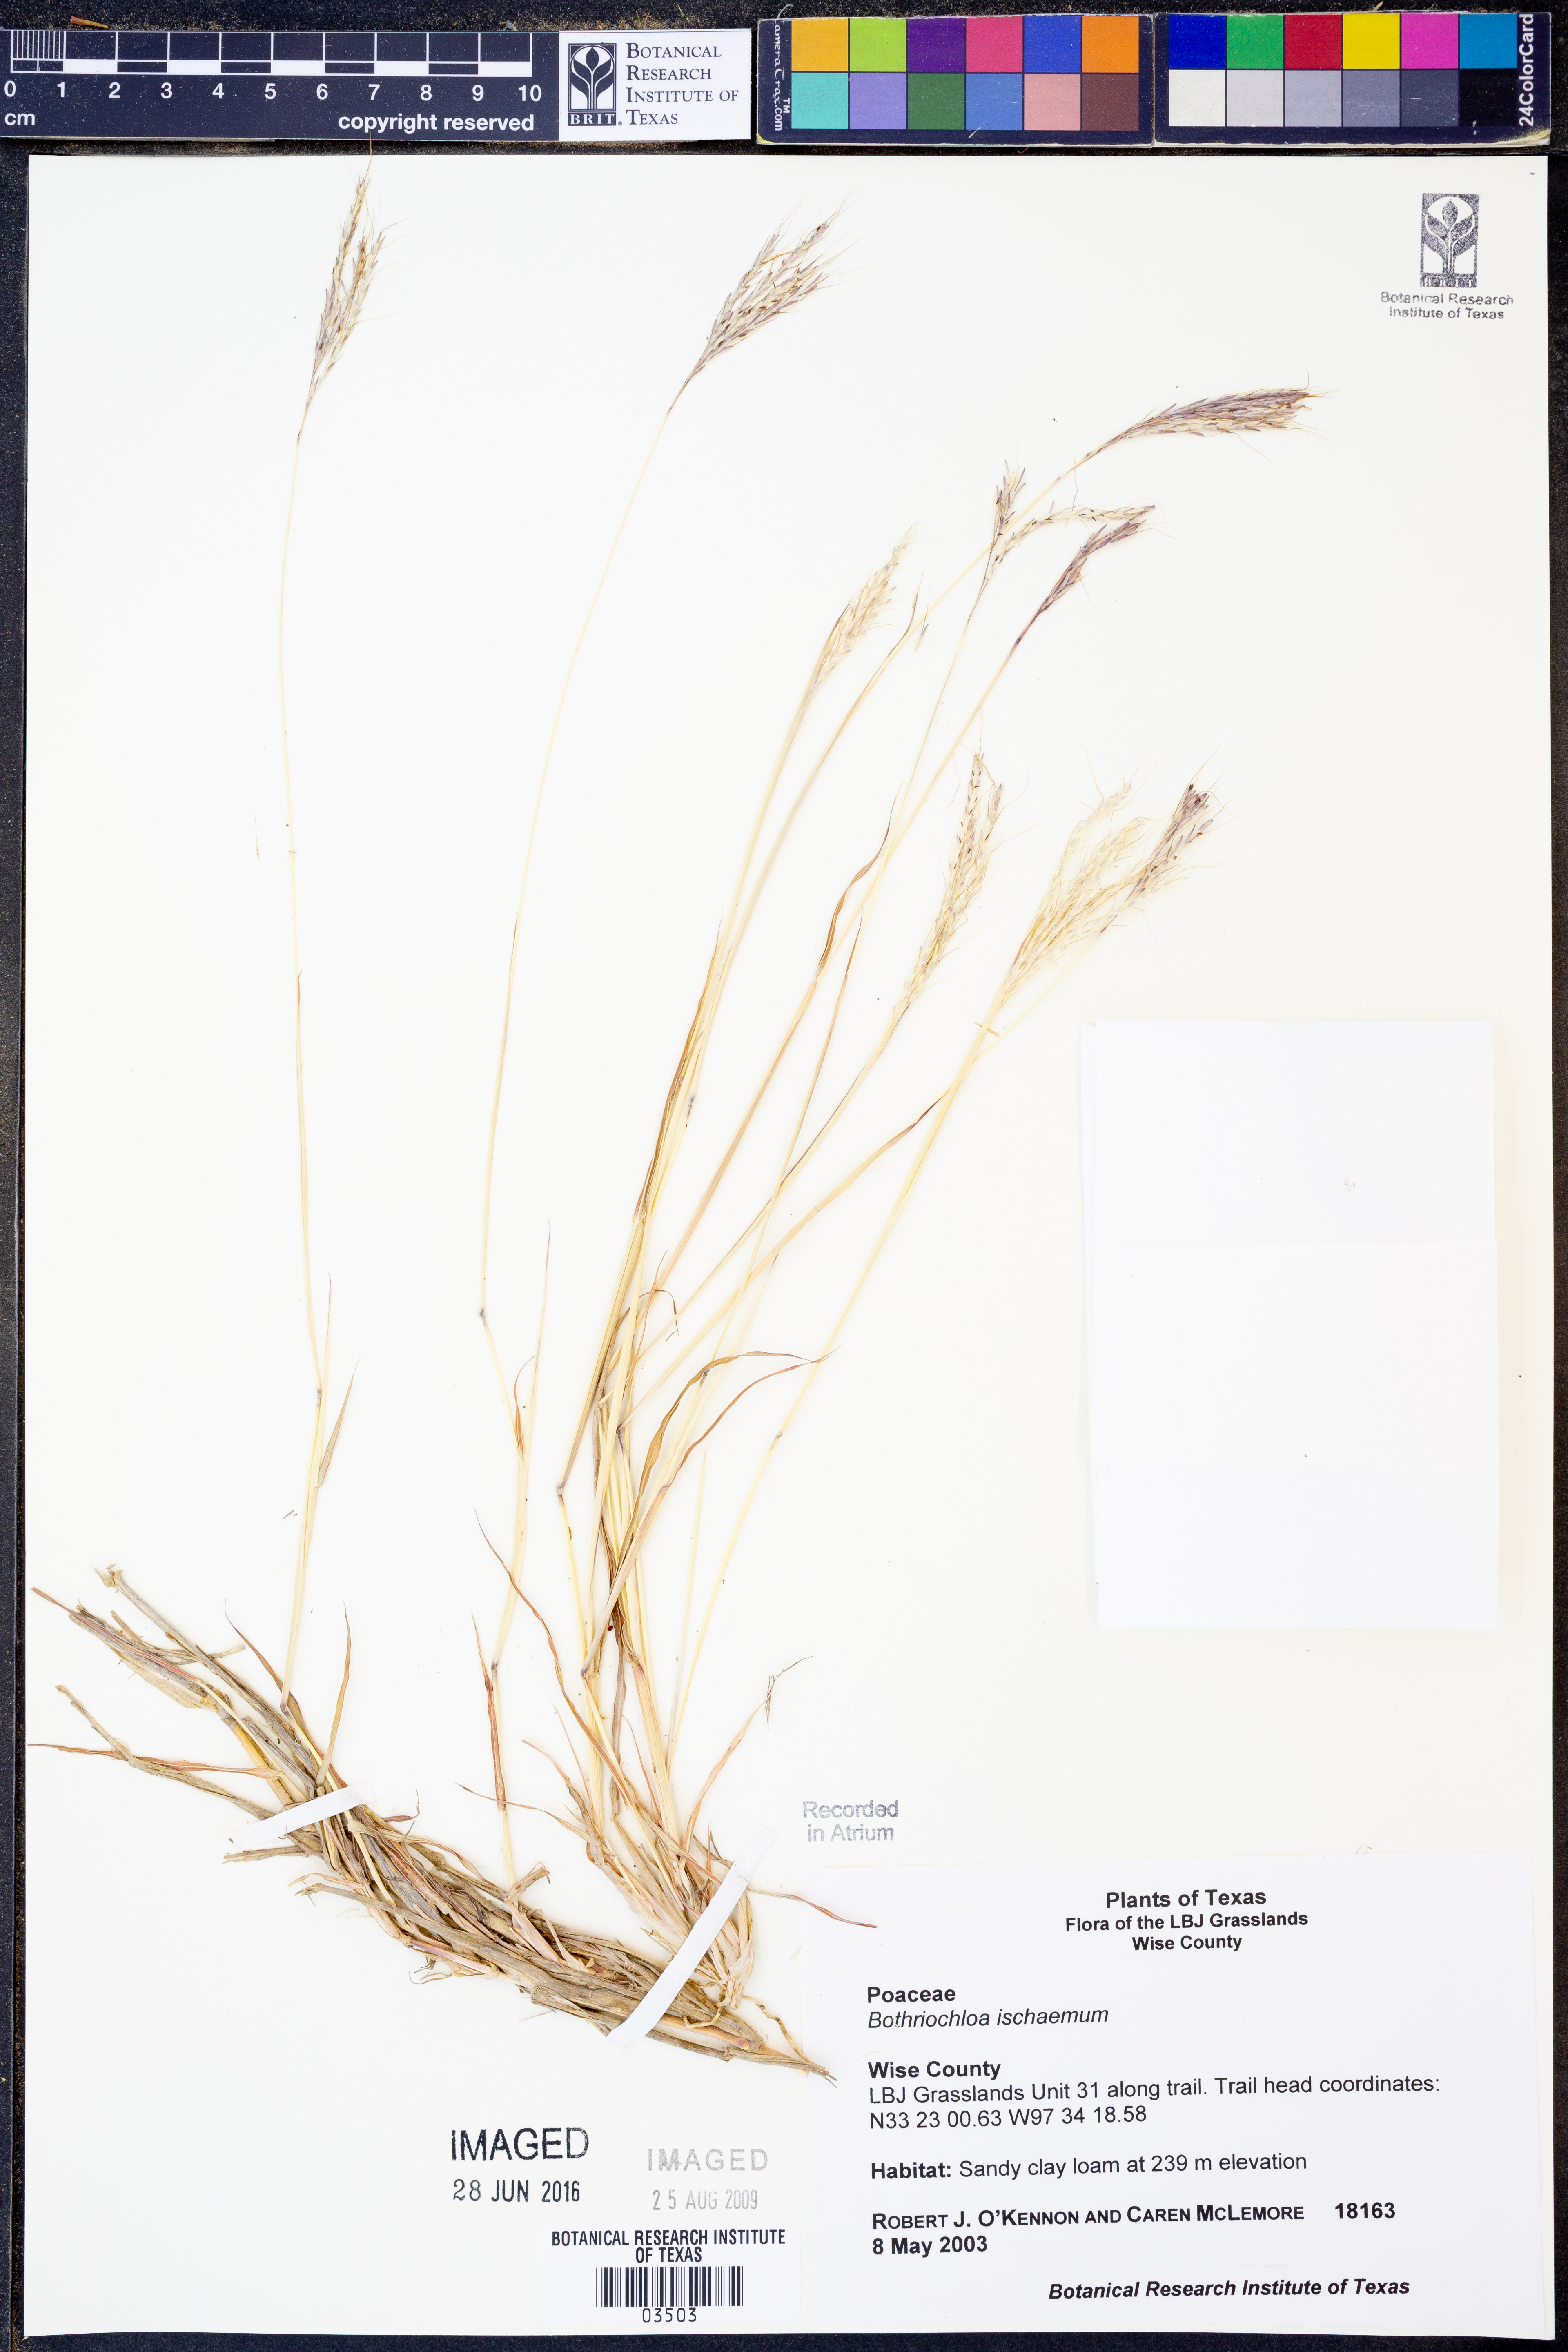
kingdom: Plantae
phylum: Tracheophyta
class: Liliopsida
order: Poales
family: Poaceae
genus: Bothriochloa
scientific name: Bothriochloa ischaemum
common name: Yellow bluestem
